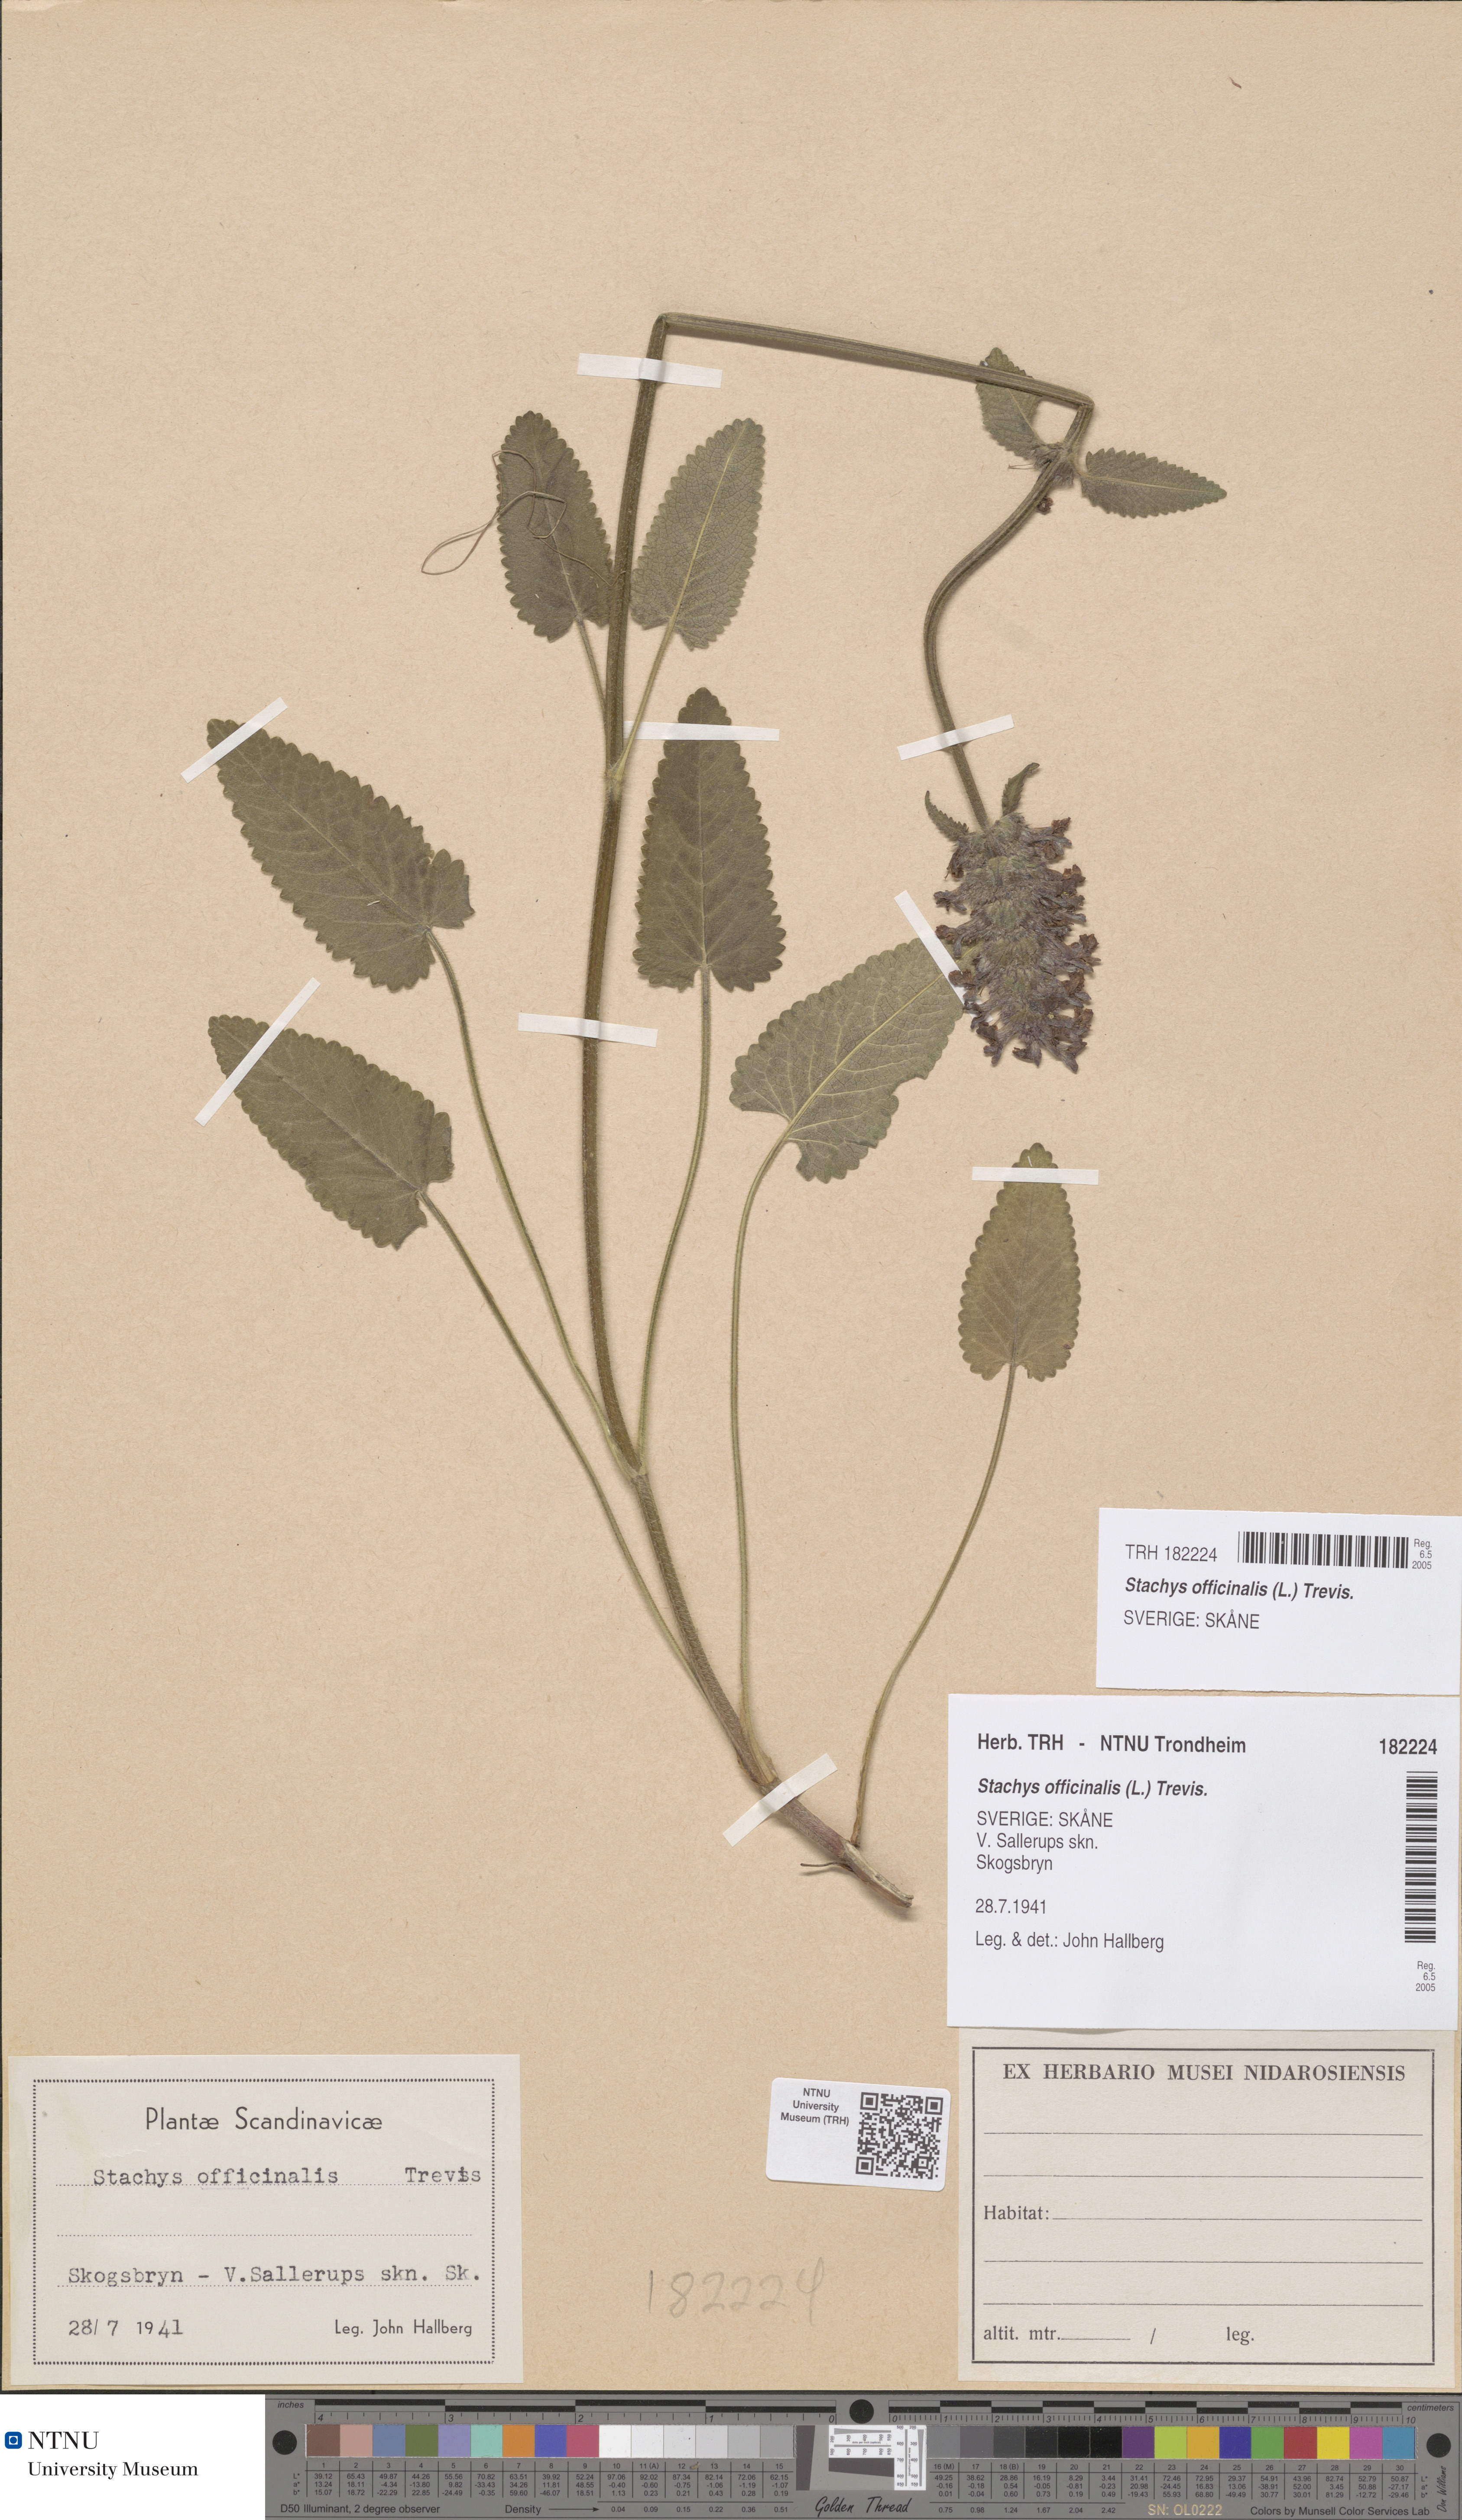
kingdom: Plantae
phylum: Tracheophyta
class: Magnoliopsida
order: Lamiales
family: Lamiaceae
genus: Betonica
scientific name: Betonica officinalis
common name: Bishop's-wort
